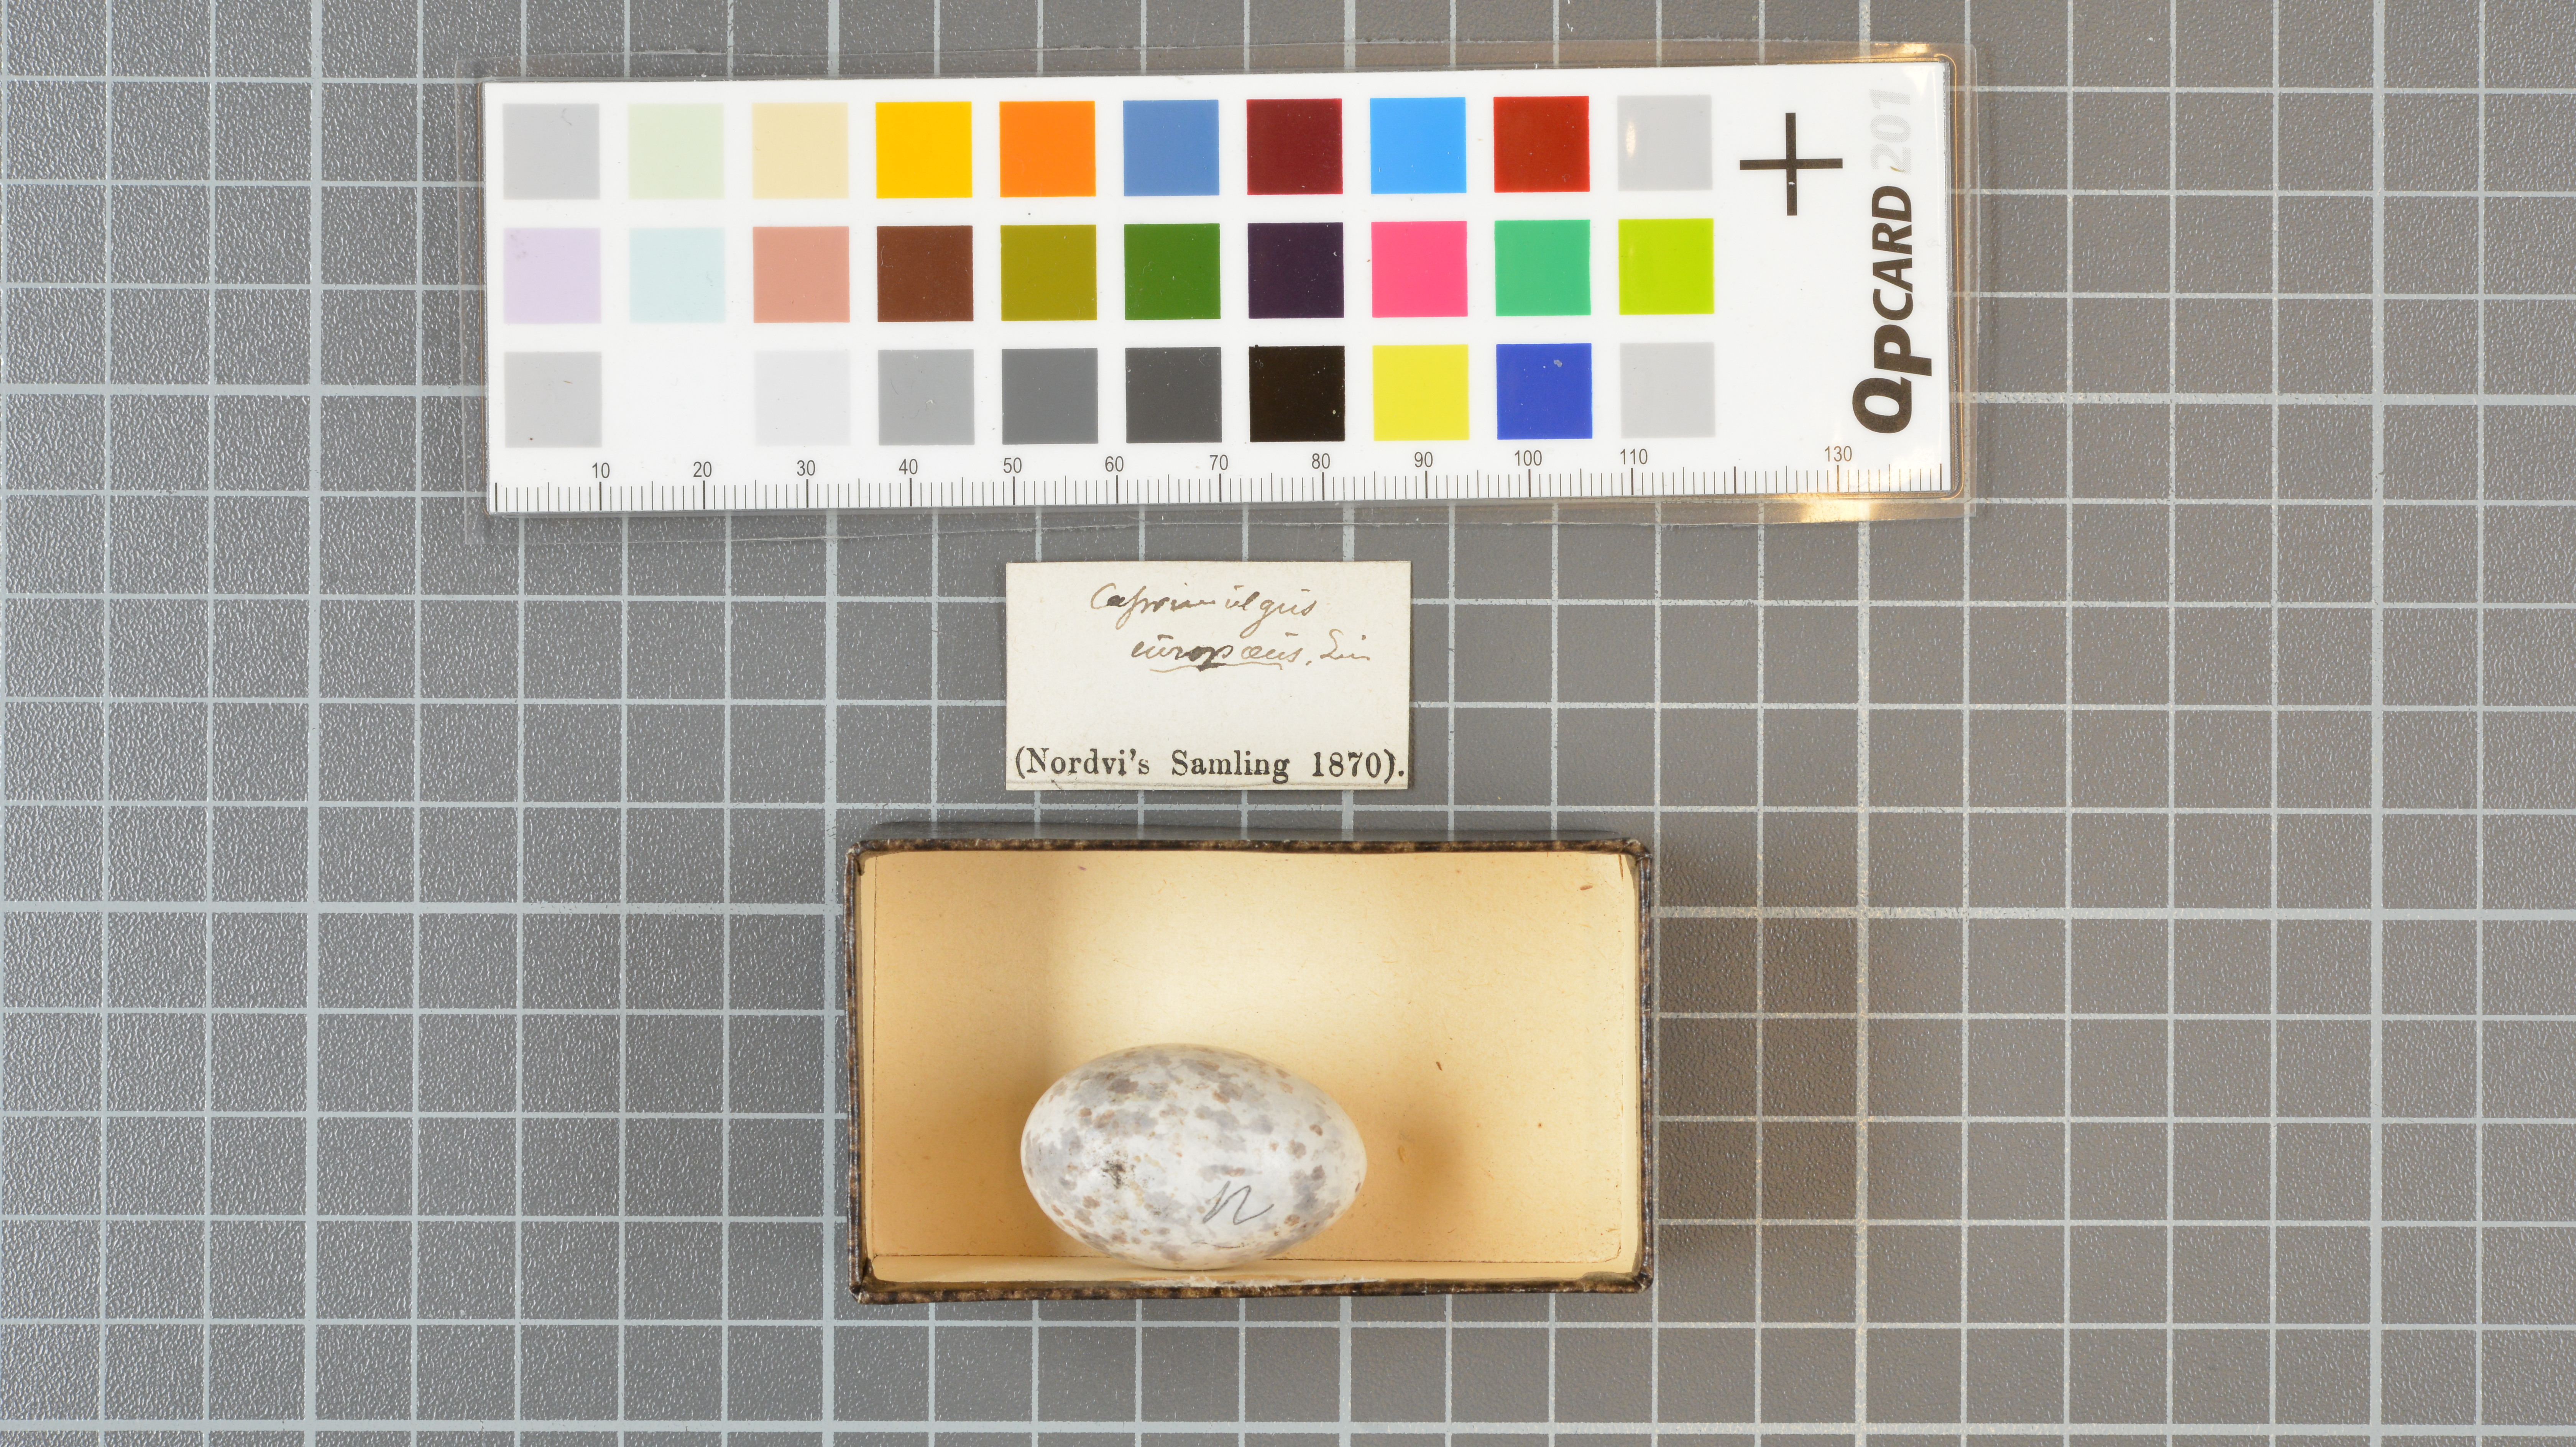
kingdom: Animalia
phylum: Chordata
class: Aves
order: Caprimulgiformes
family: Caprimulgidae
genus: Caprimulgus
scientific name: Caprimulgus europaeus
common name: European nightjar
